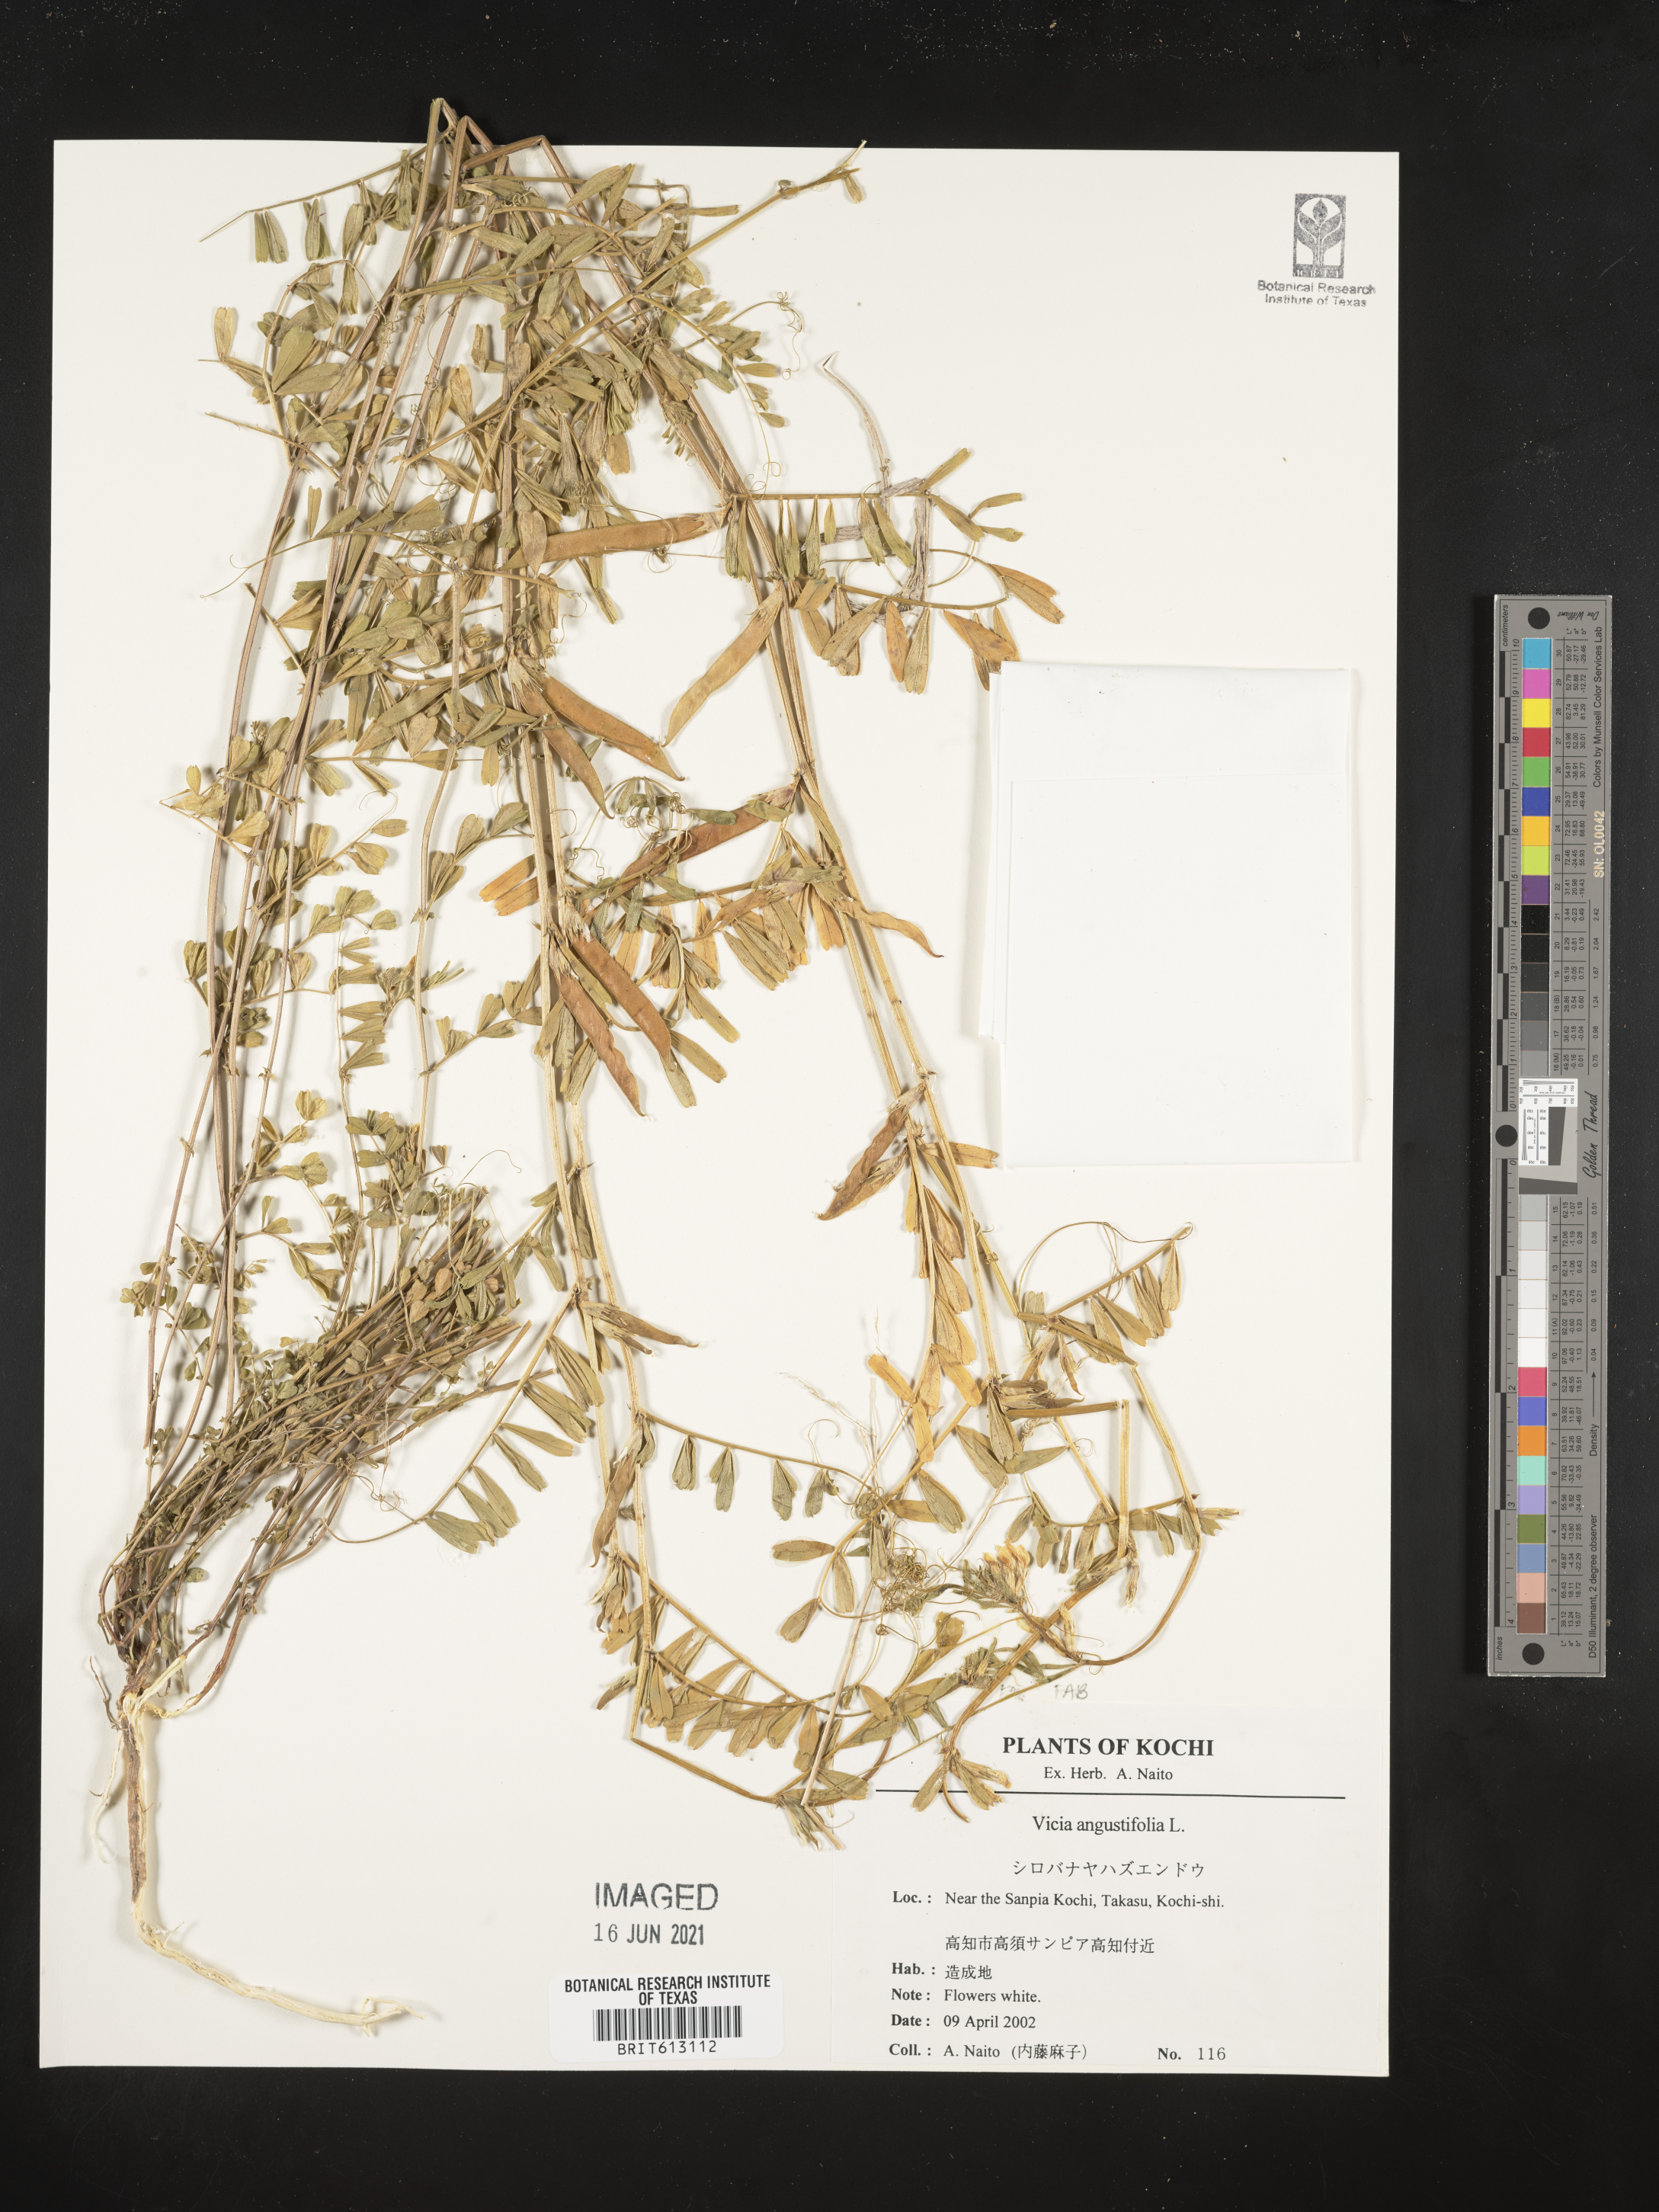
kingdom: Plantae
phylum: Tracheophyta
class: Magnoliopsida
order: Fabales
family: Fabaceae
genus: Vicia
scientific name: Vicia sativa
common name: Garden vetch
